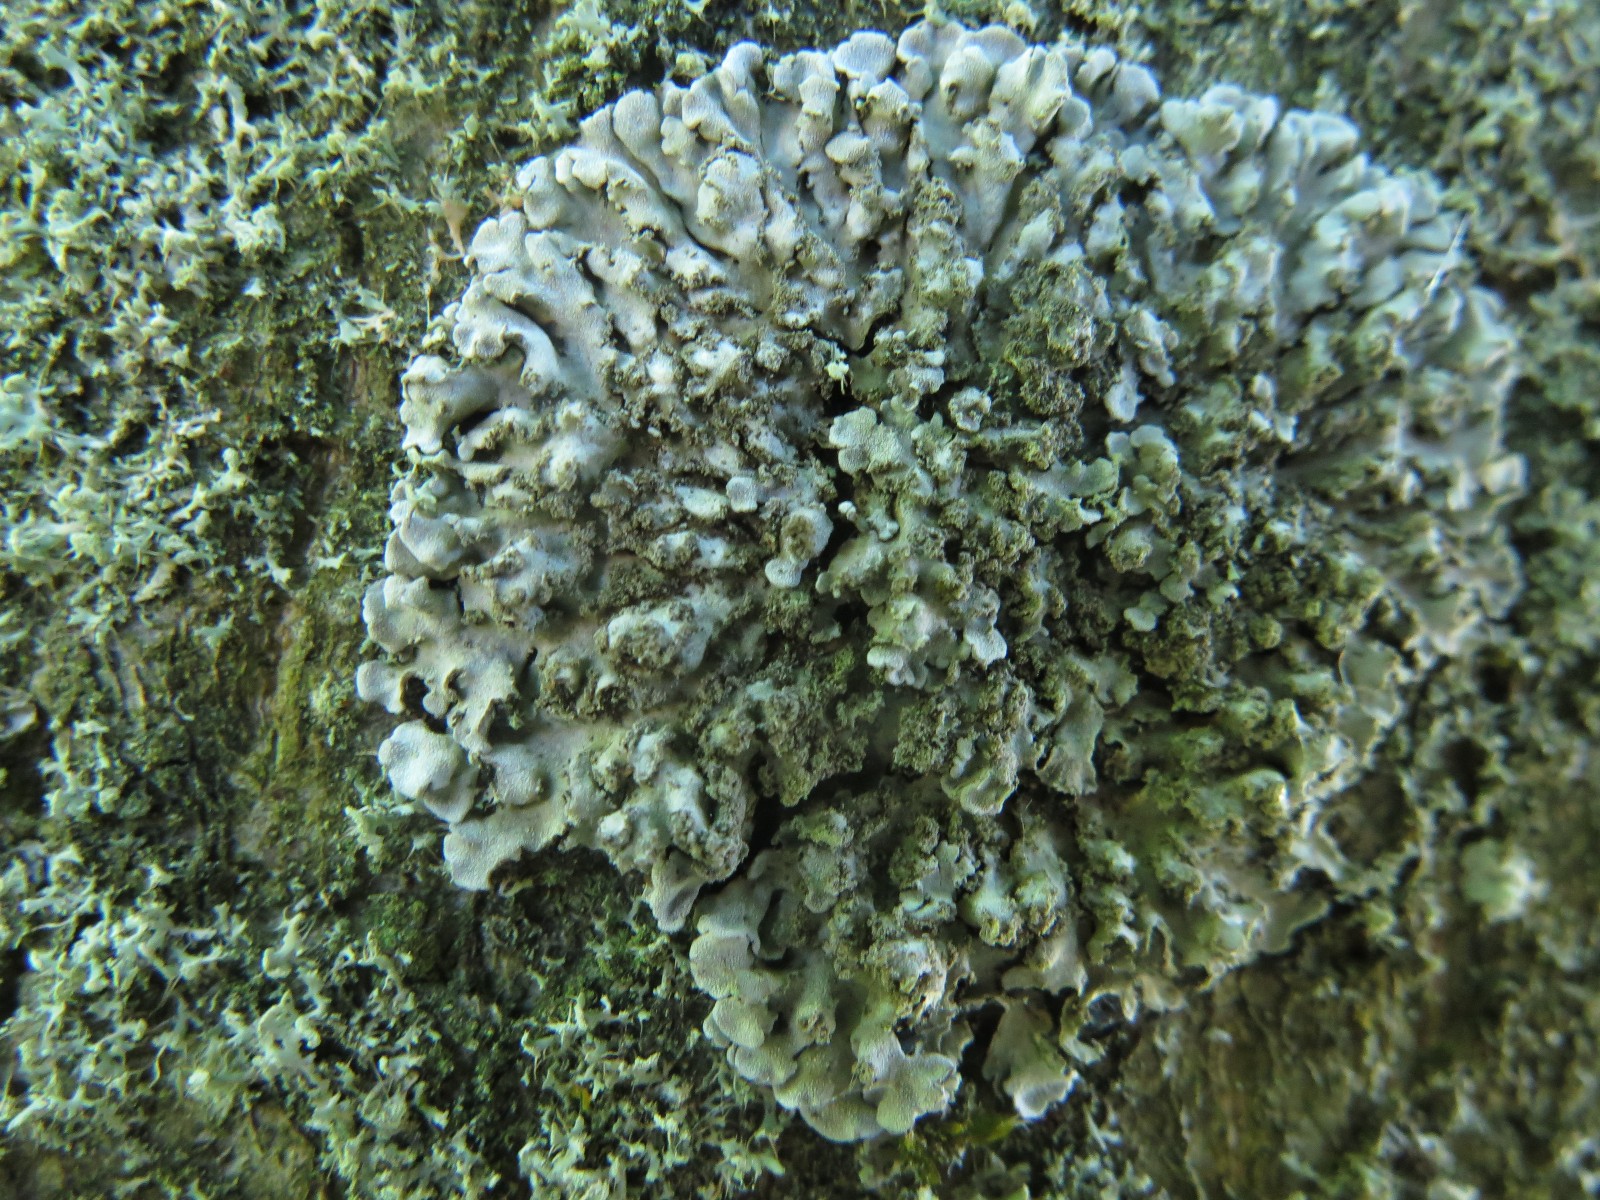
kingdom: Fungi
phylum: Ascomycota
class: Lecanoromycetes
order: Caliciales
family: Physciaceae
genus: Physconia
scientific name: Physconia enteroxantha
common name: grynet dugrosetlav
